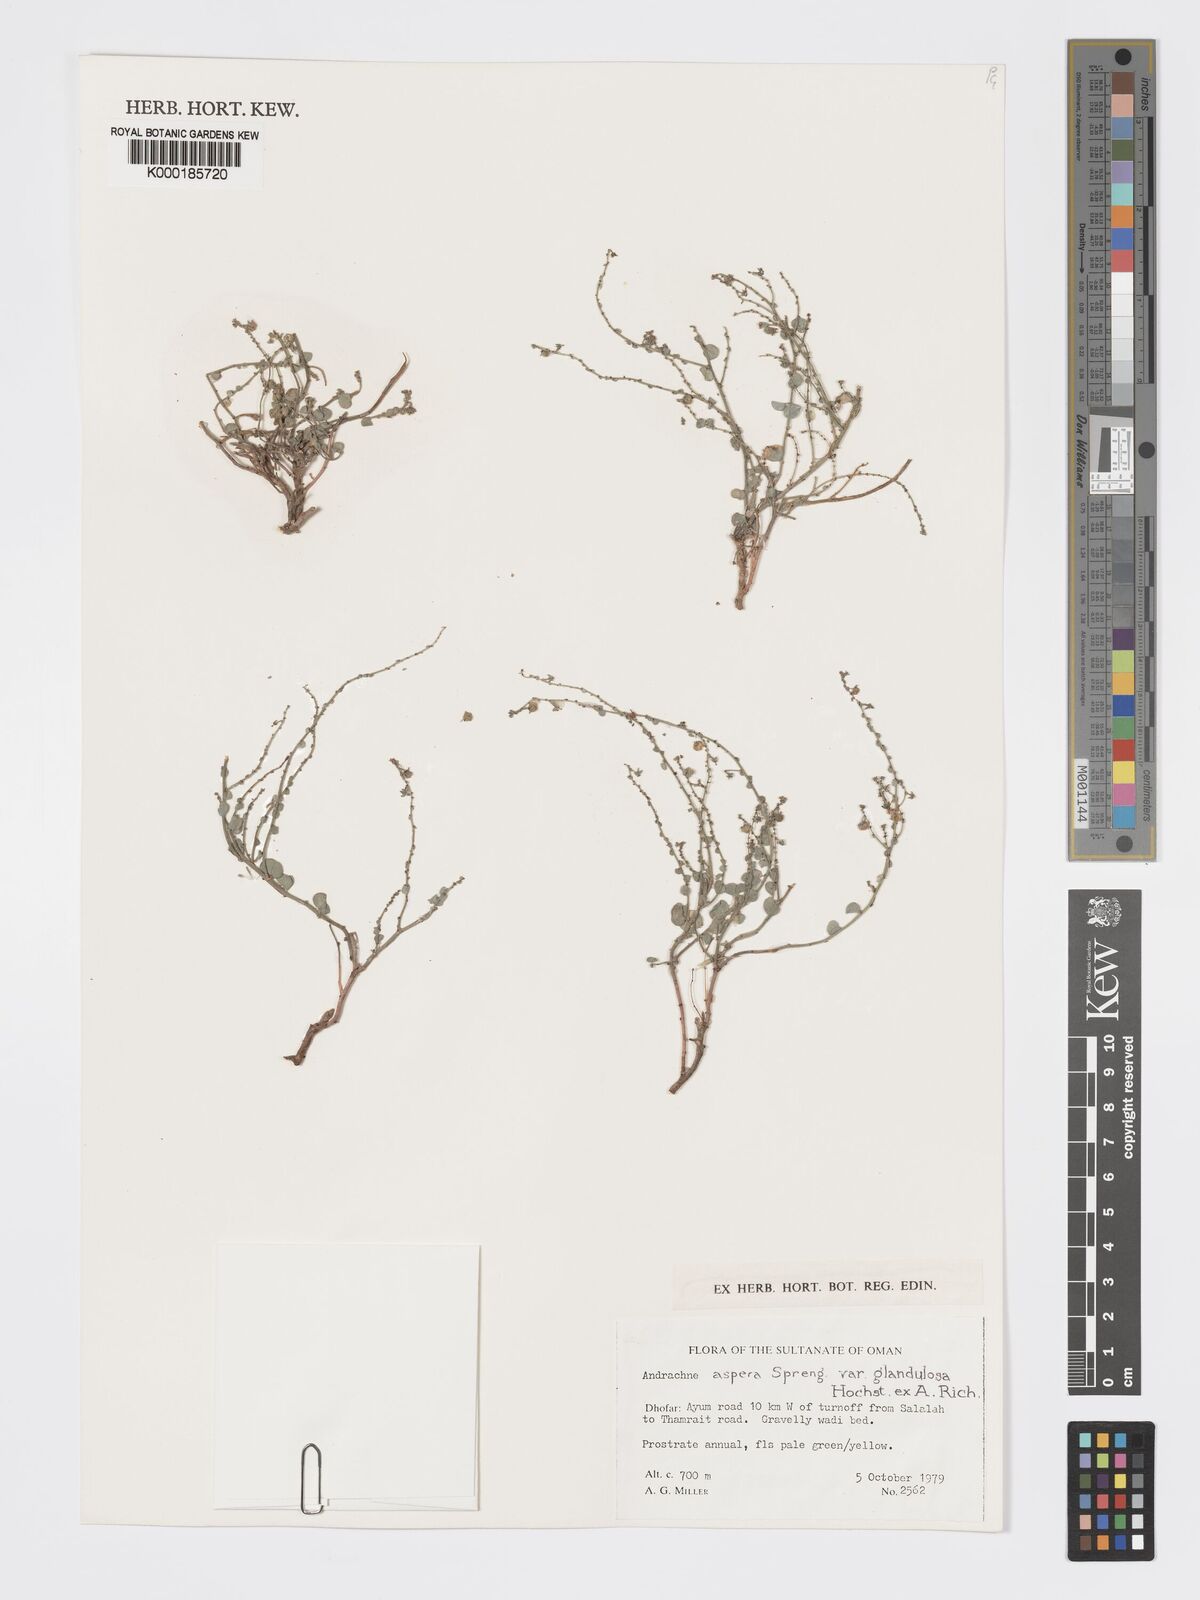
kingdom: Plantae
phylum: Tracheophyta
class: Magnoliopsida
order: Malpighiales
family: Phyllanthaceae
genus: Andrachne
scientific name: Andrachne aspera
